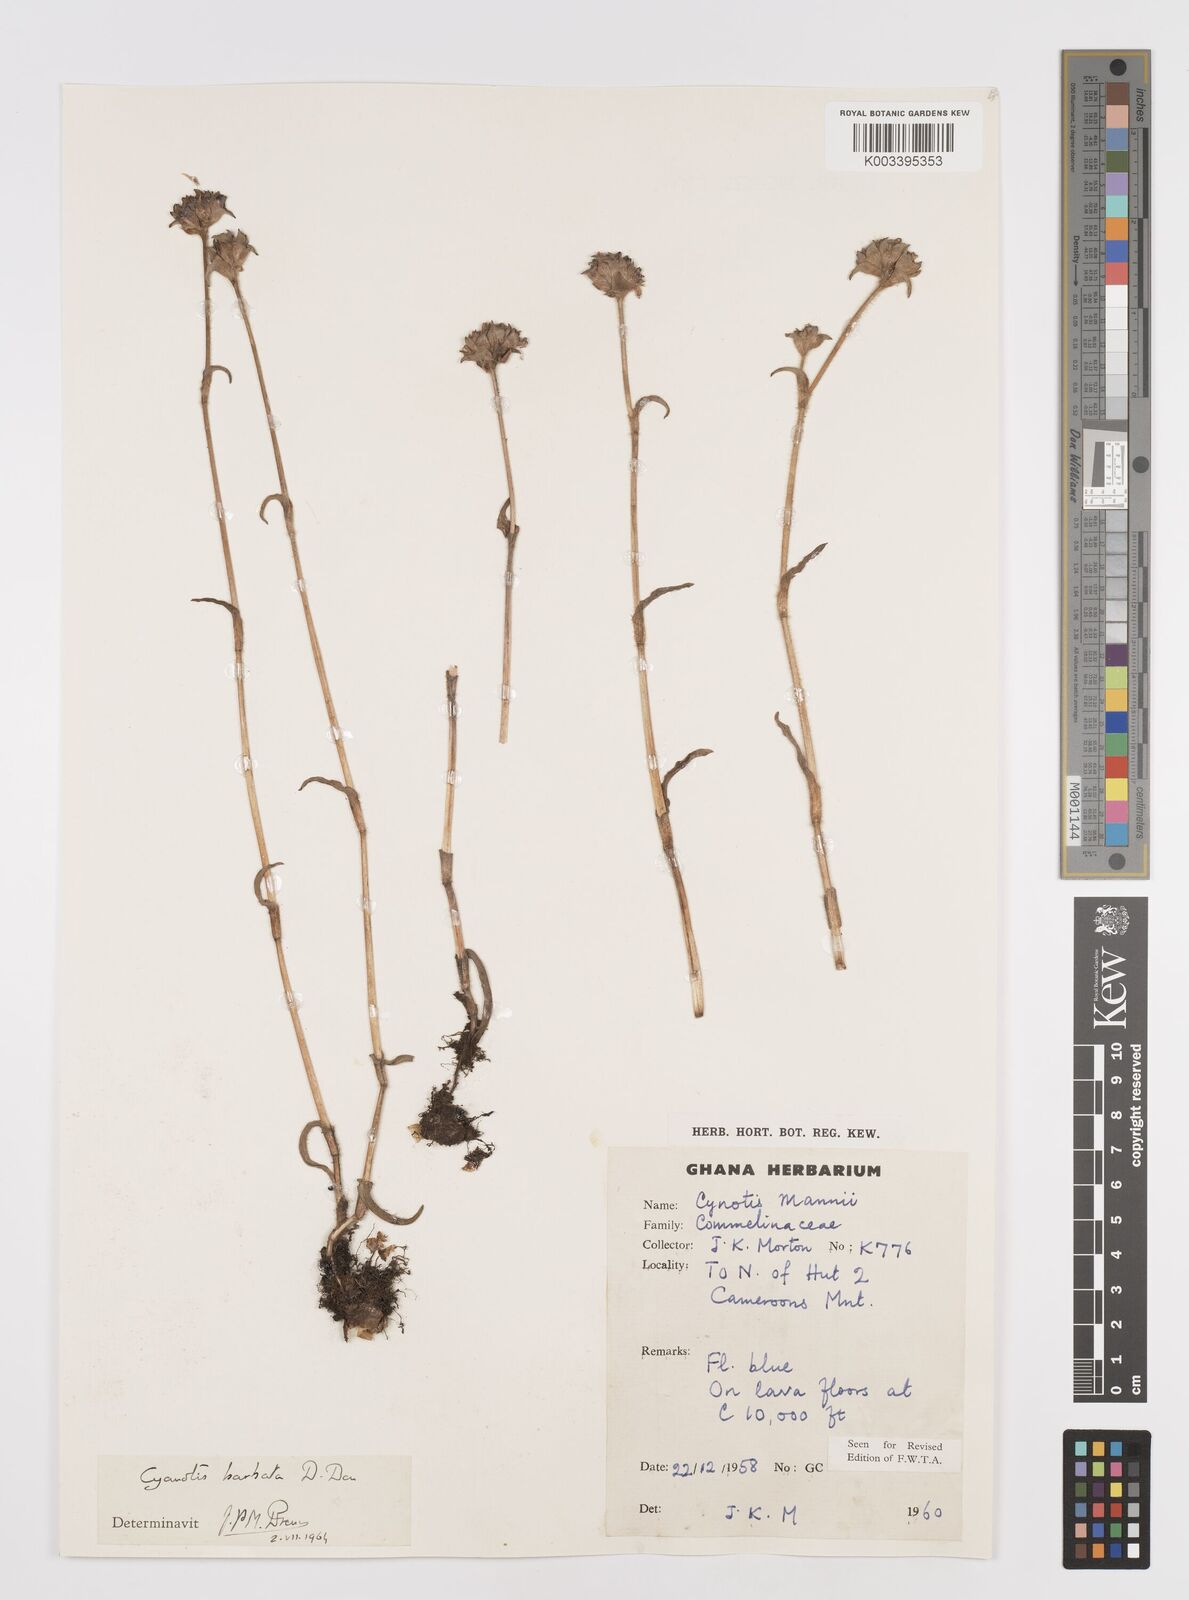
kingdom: Plantae
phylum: Tracheophyta
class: Liliopsida
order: Commelinales
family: Commelinaceae
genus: Cyanotis
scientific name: Cyanotis vaga
